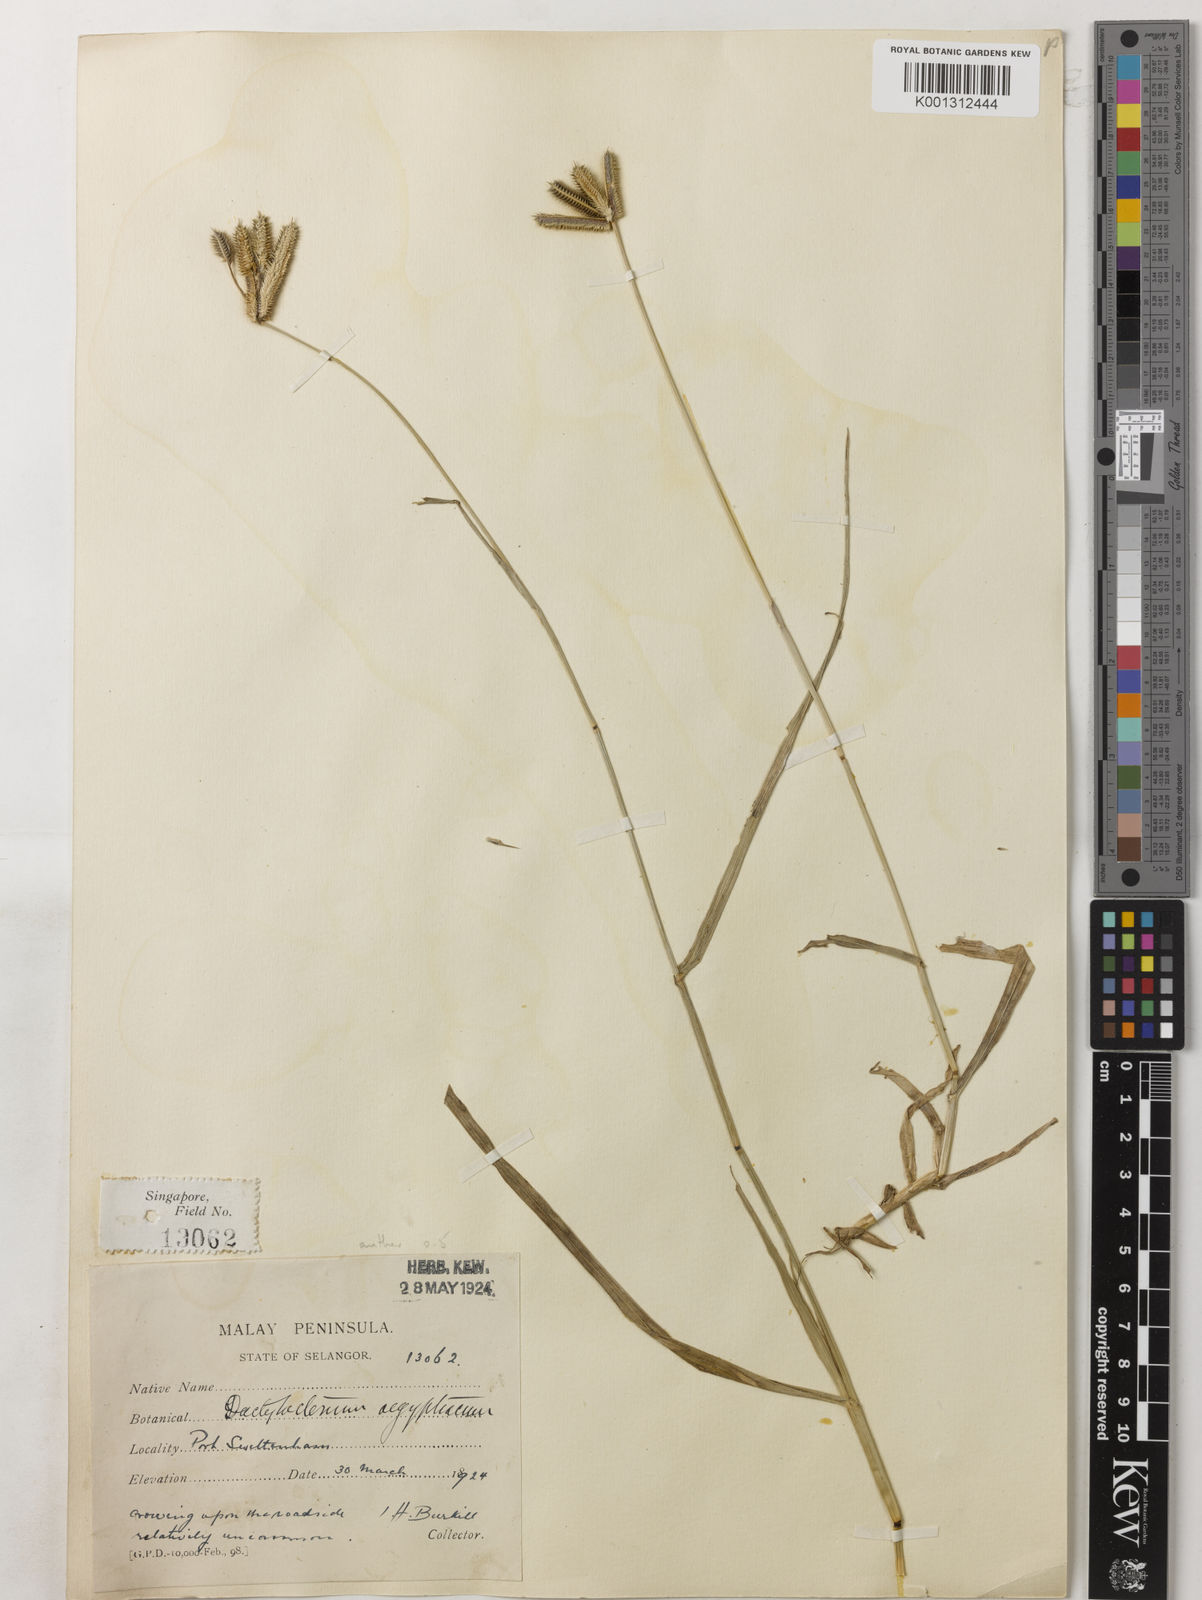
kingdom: Plantae
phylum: Tracheophyta
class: Liliopsida
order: Poales
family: Poaceae
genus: Dactyloctenium
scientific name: Dactyloctenium aegyptium
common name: Egyptian grass
